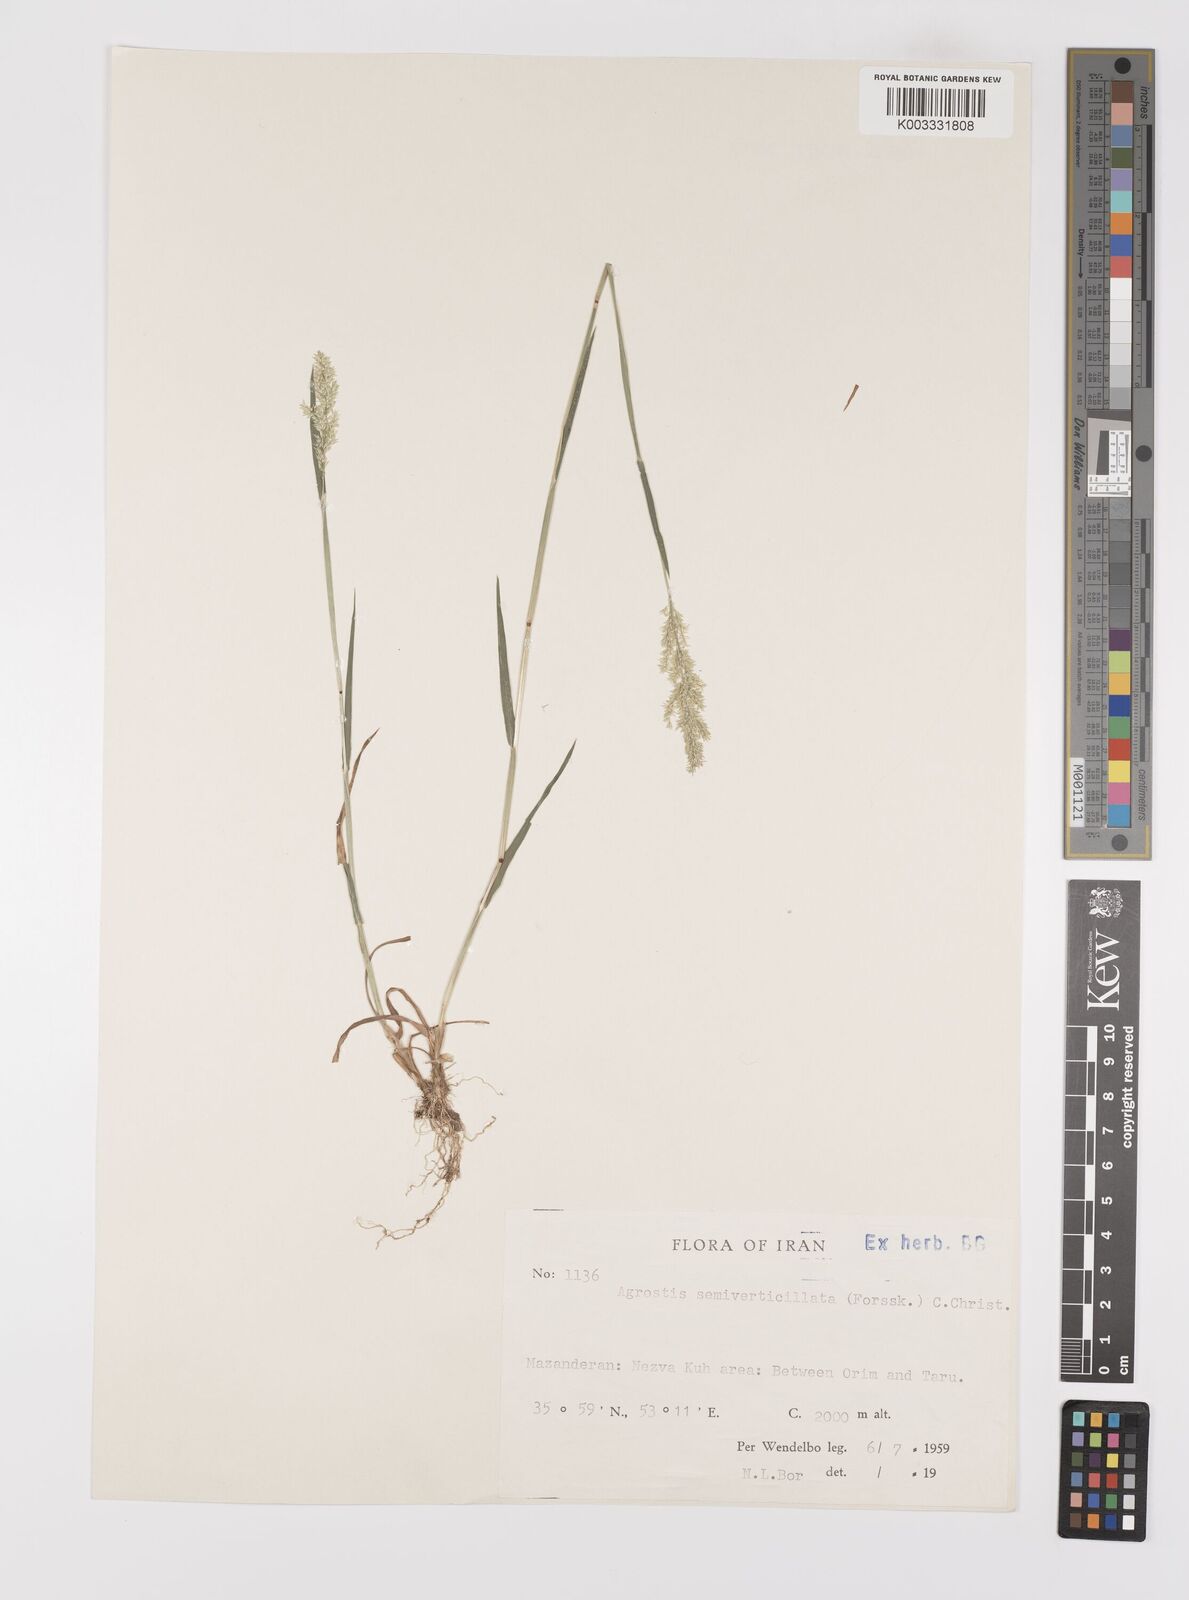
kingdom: Plantae
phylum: Tracheophyta
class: Liliopsida
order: Poales
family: Poaceae
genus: Polypogon
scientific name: Polypogon viridis
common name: Water bent
